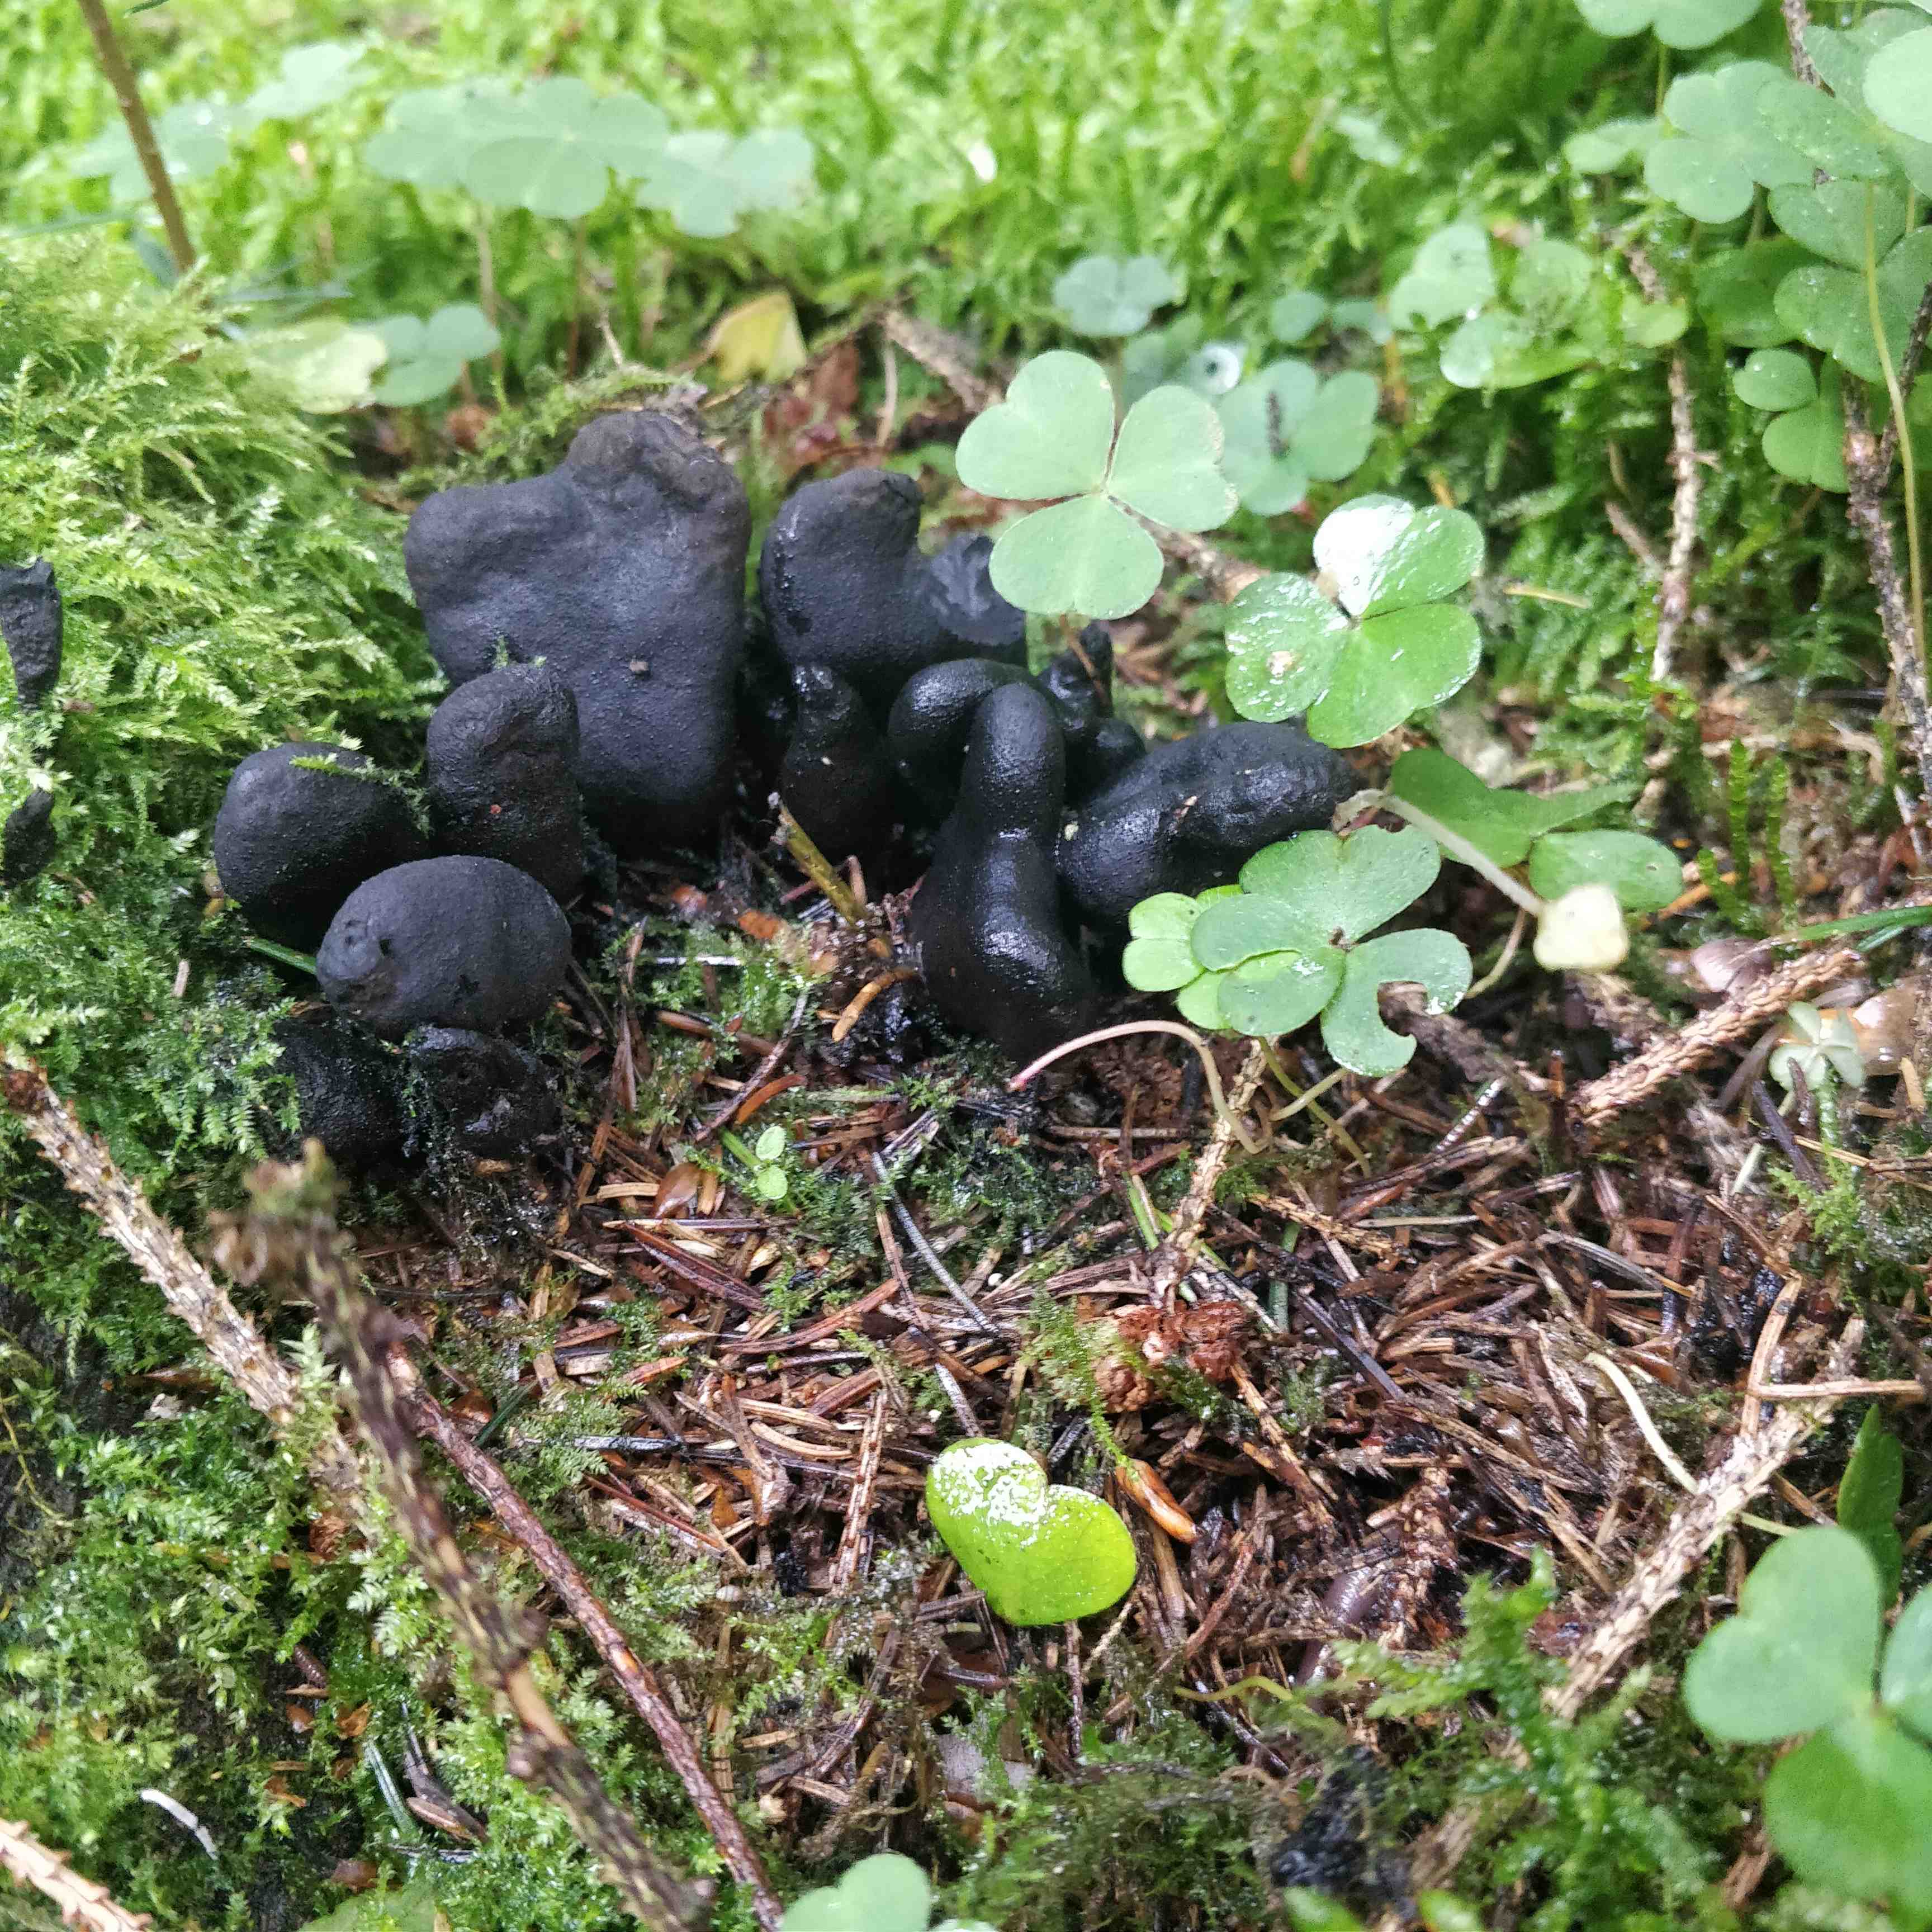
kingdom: Fungi
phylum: Ascomycota
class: Sordariomycetes
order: Xylariales
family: Xylariaceae
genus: Xylaria
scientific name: Xylaria polymorpha
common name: kølle-stødsvamp
